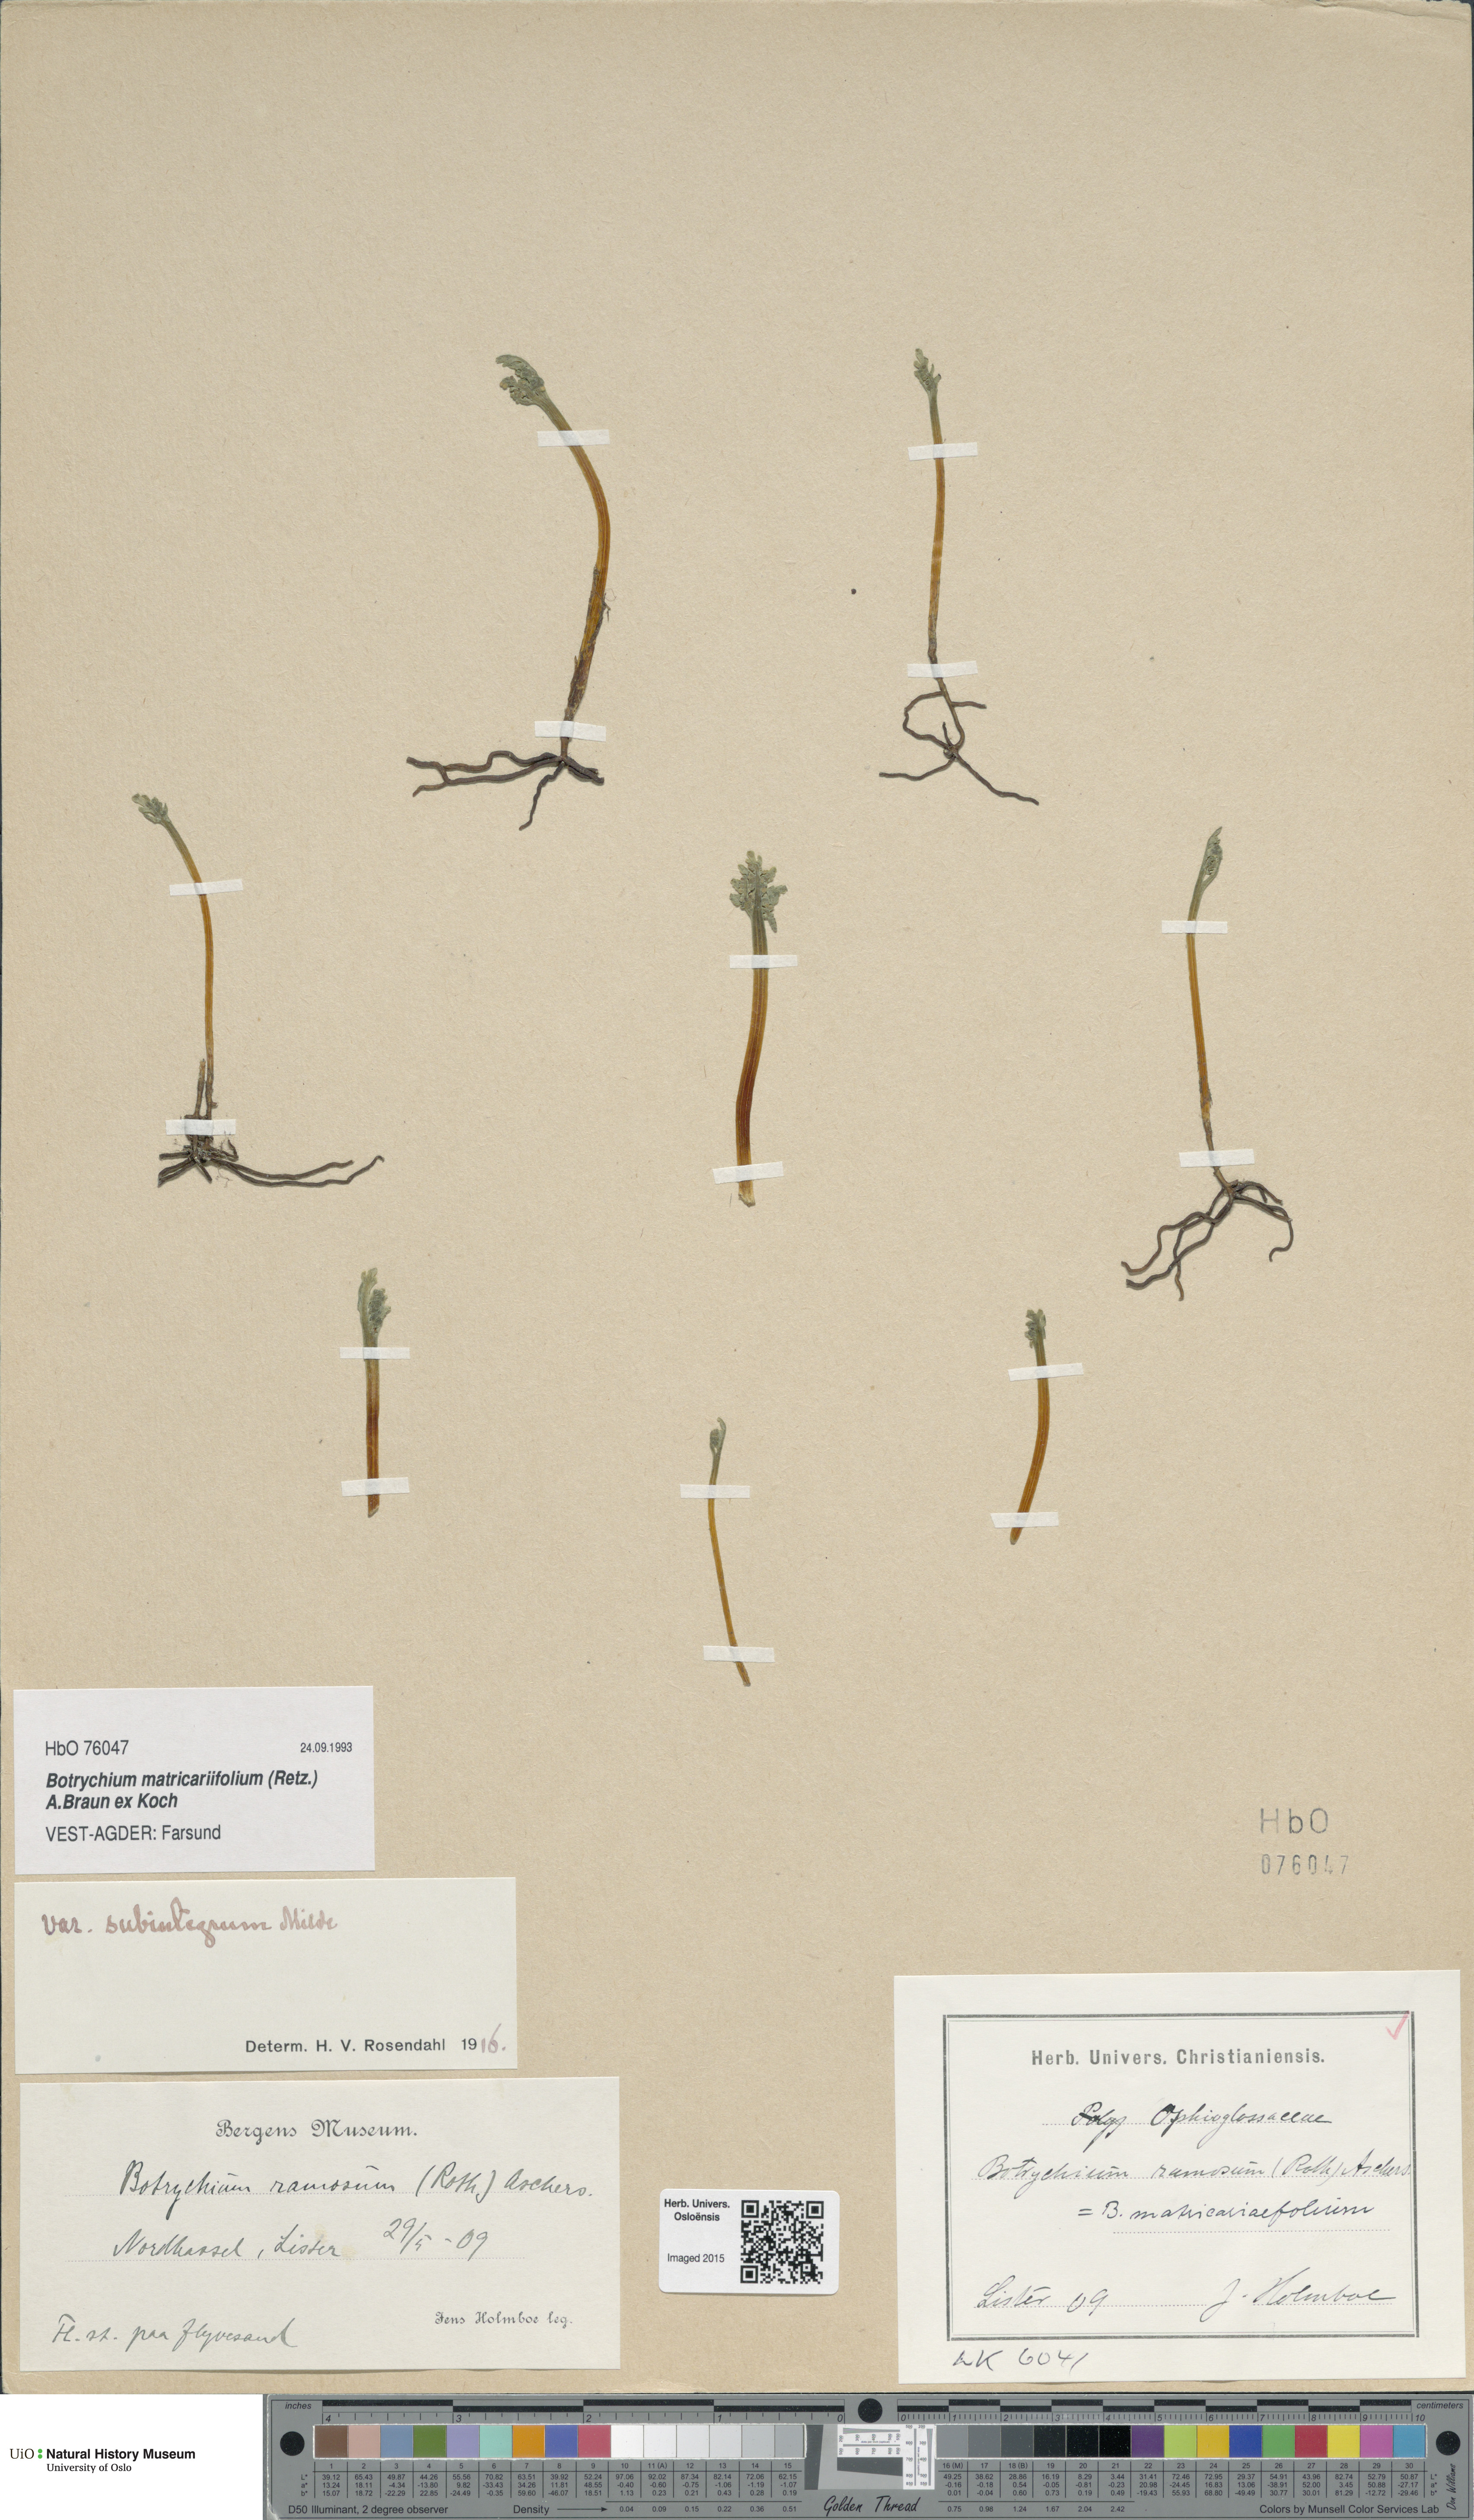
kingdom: Plantae
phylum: Tracheophyta
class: Polypodiopsida
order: Ophioglossales
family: Ophioglossaceae
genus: Botrychium
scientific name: Botrychium matricariifolium
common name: Branched moonwort
